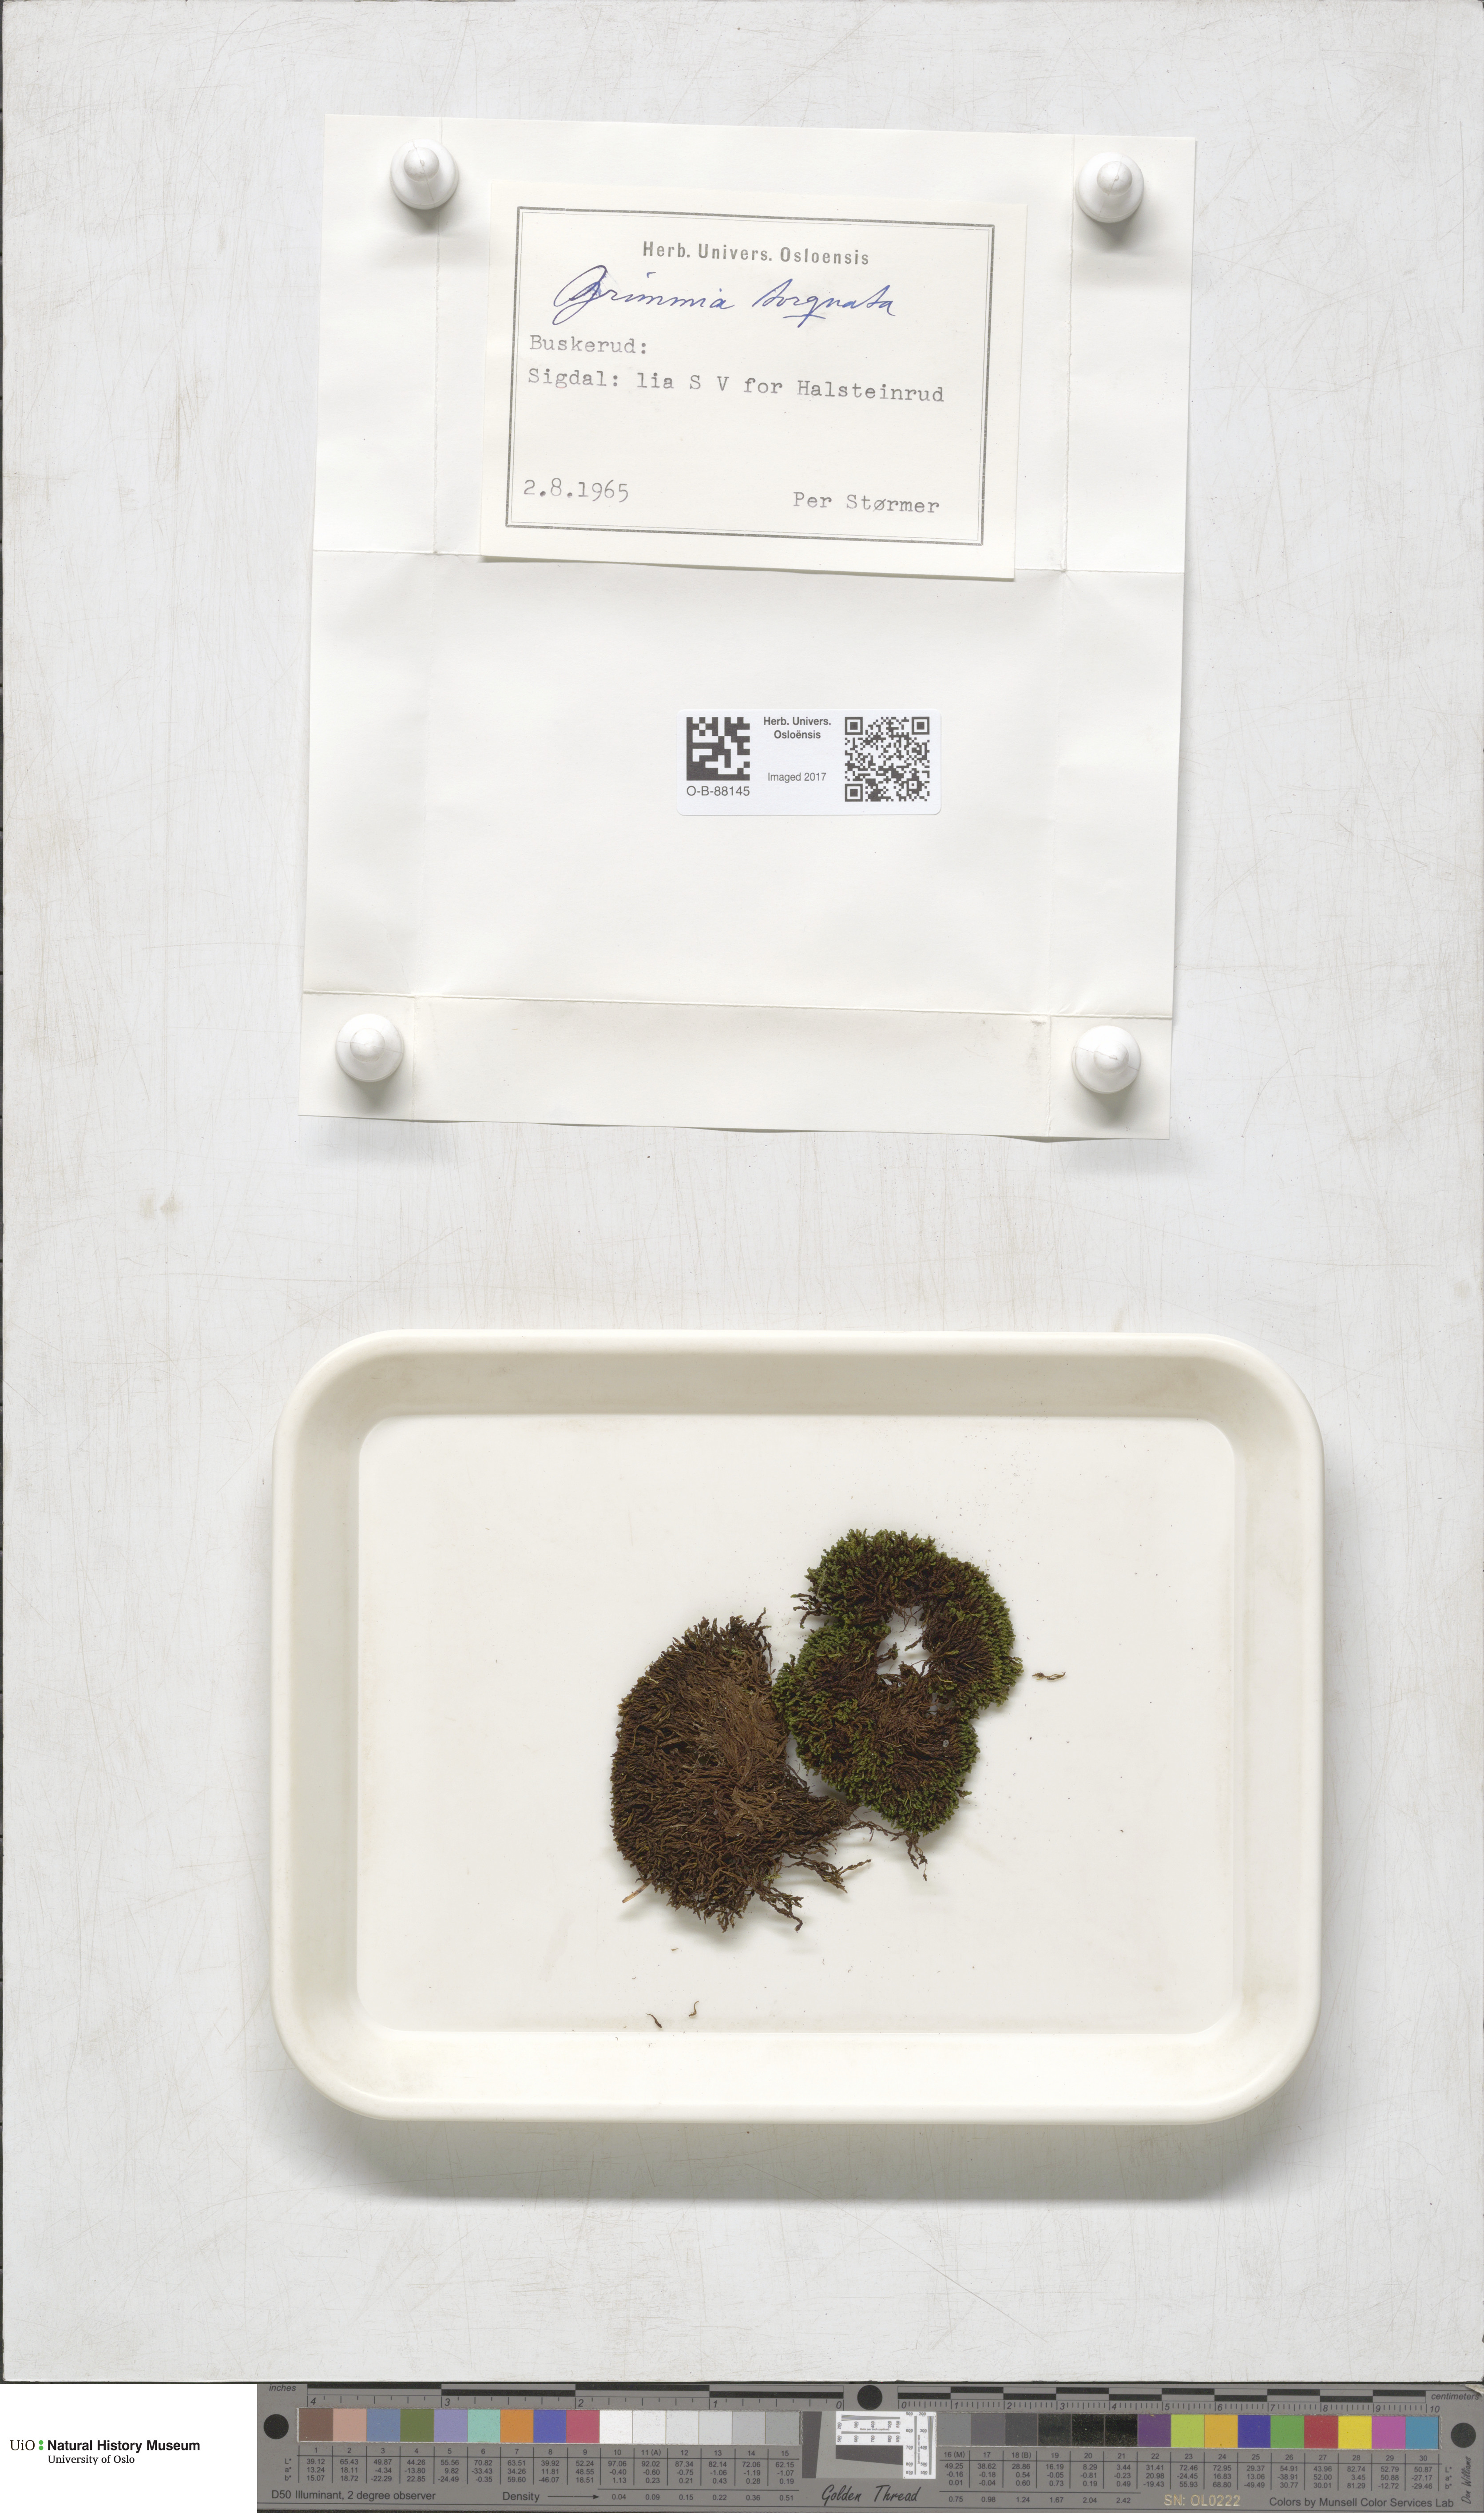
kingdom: Plantae
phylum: Bryophyta
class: Bryopsida
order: Grimmiales
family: Grimmiaceae
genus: Grimmia
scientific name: Grimmia torquata
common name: Twisted grimmia
